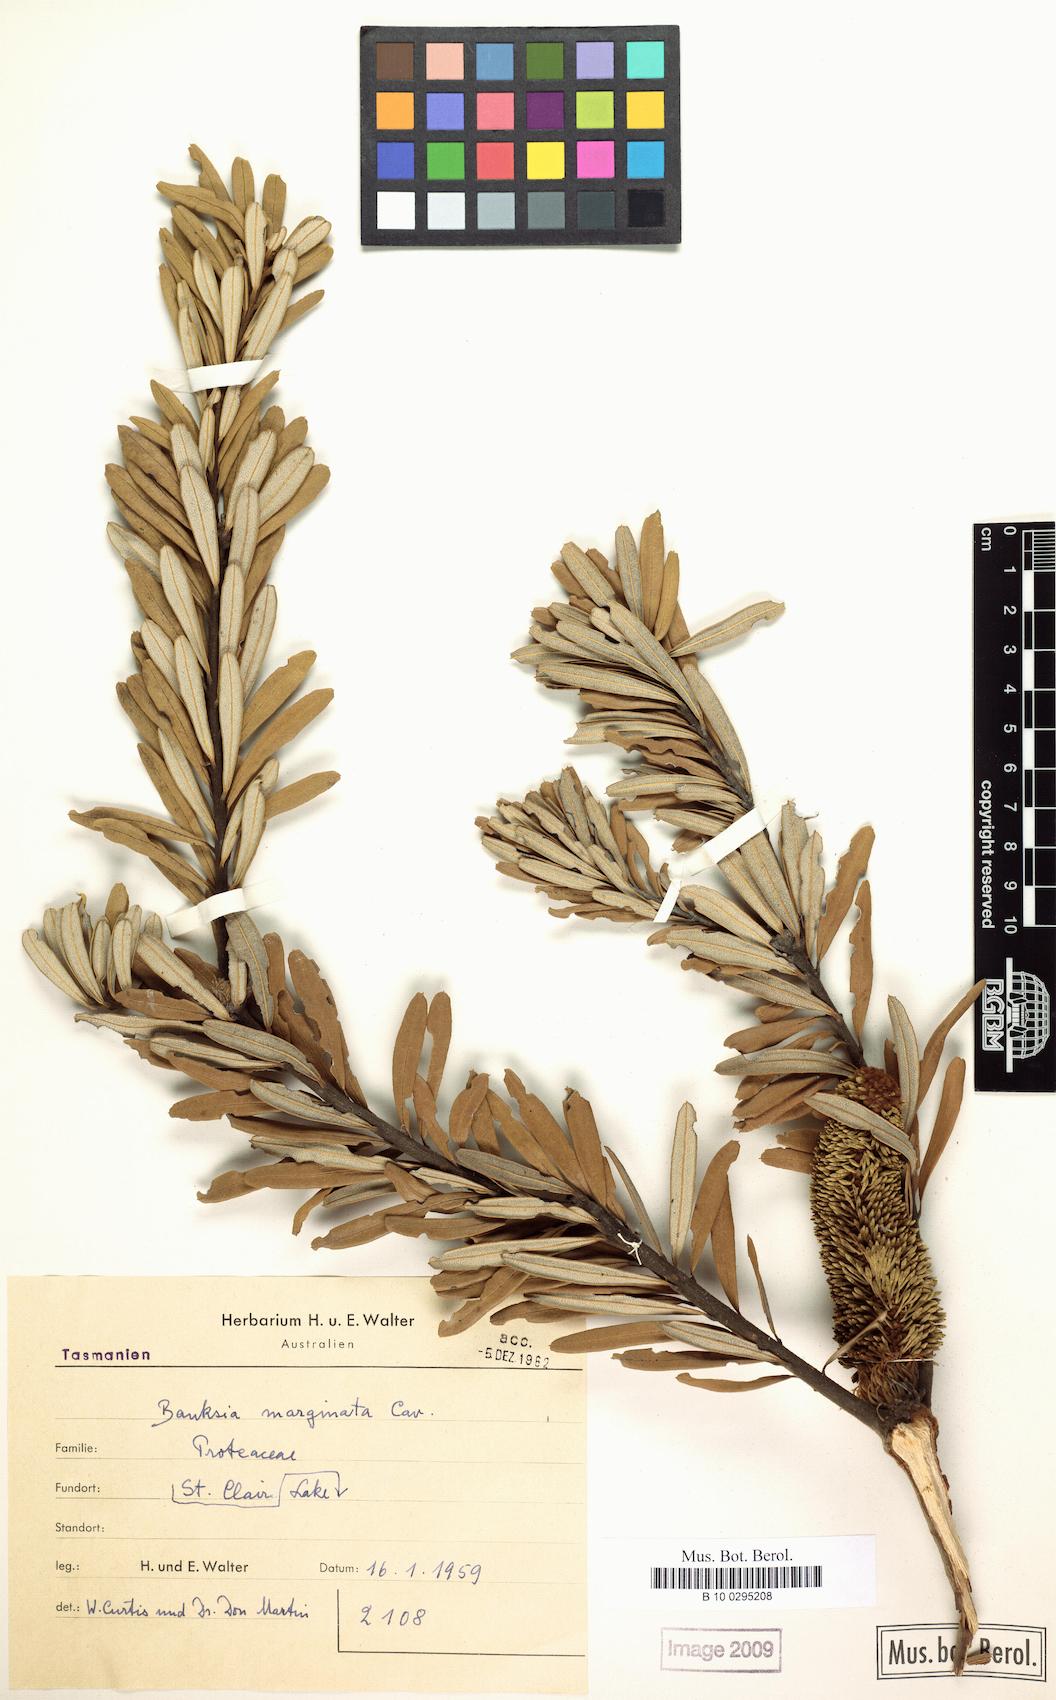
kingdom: Plantae
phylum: Tracheophyta
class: Magnoliopsida
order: Proteales
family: Proteaceae
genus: Banksia
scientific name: Banksia marginata
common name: Silver banksia
